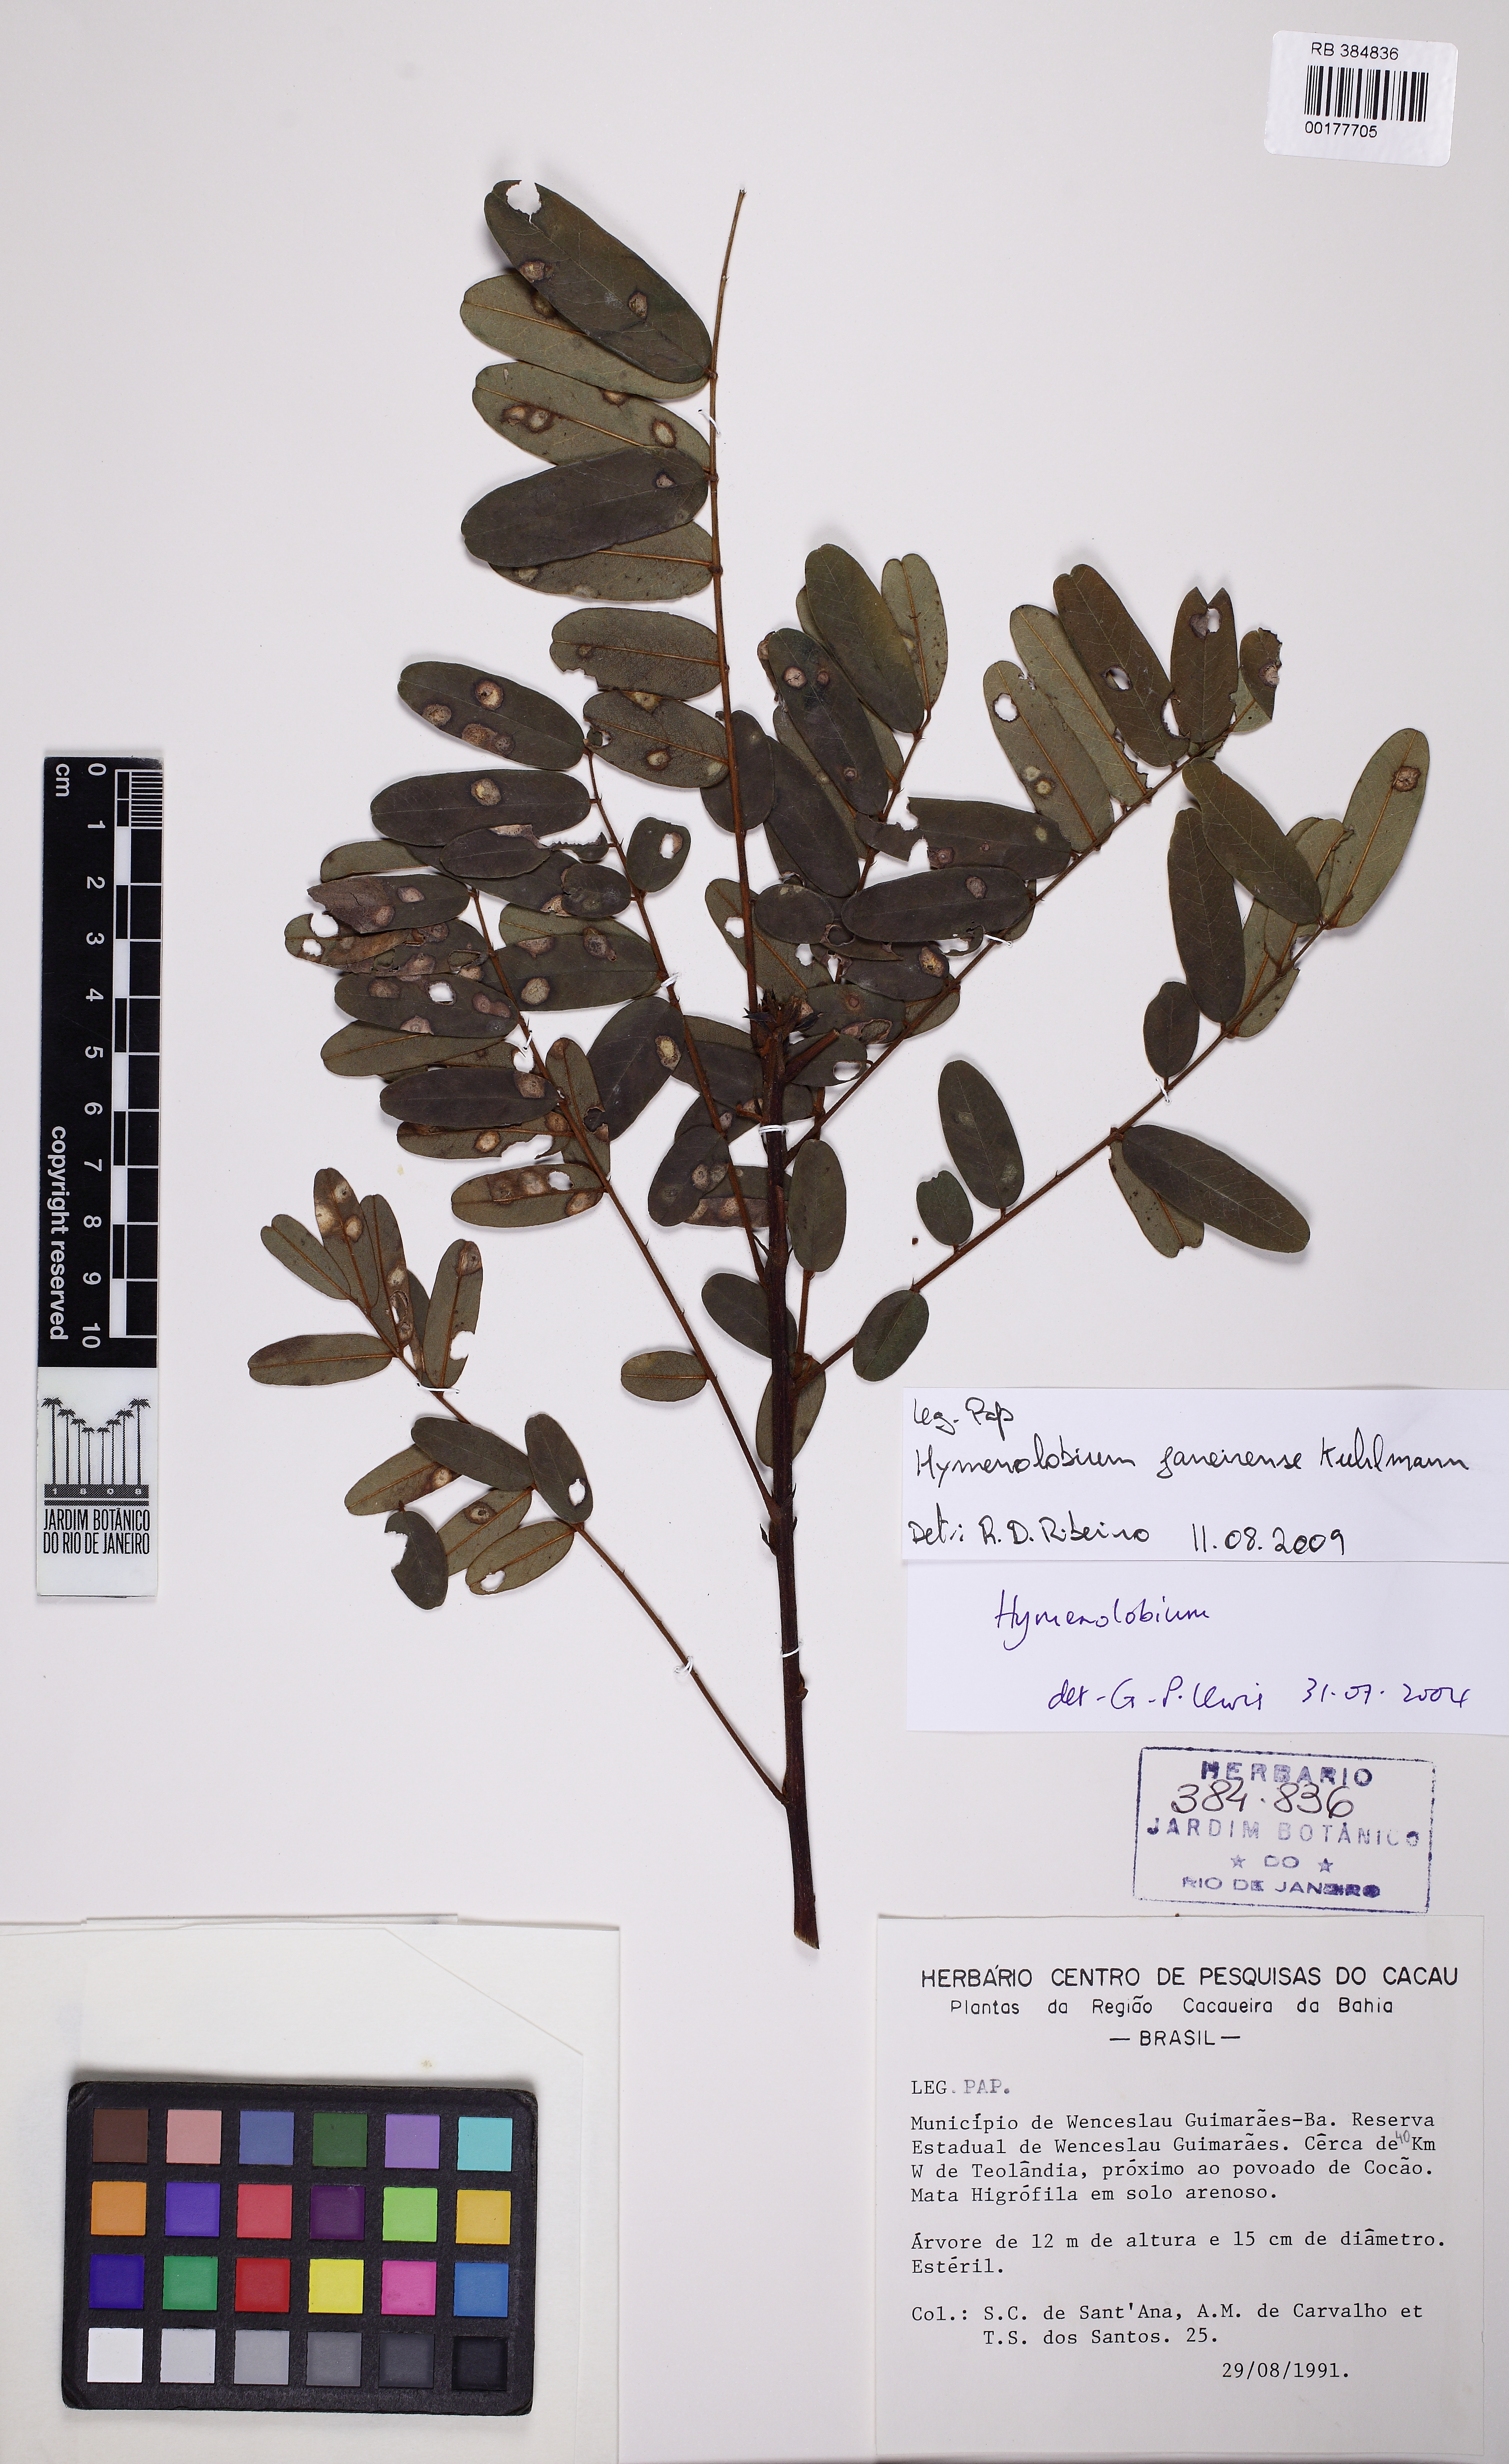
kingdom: Plantae
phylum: Tracheophyta
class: Magnoliopsida
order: Fabales
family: Fabaceae
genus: Hymenolobium
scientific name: Hymenolobium
